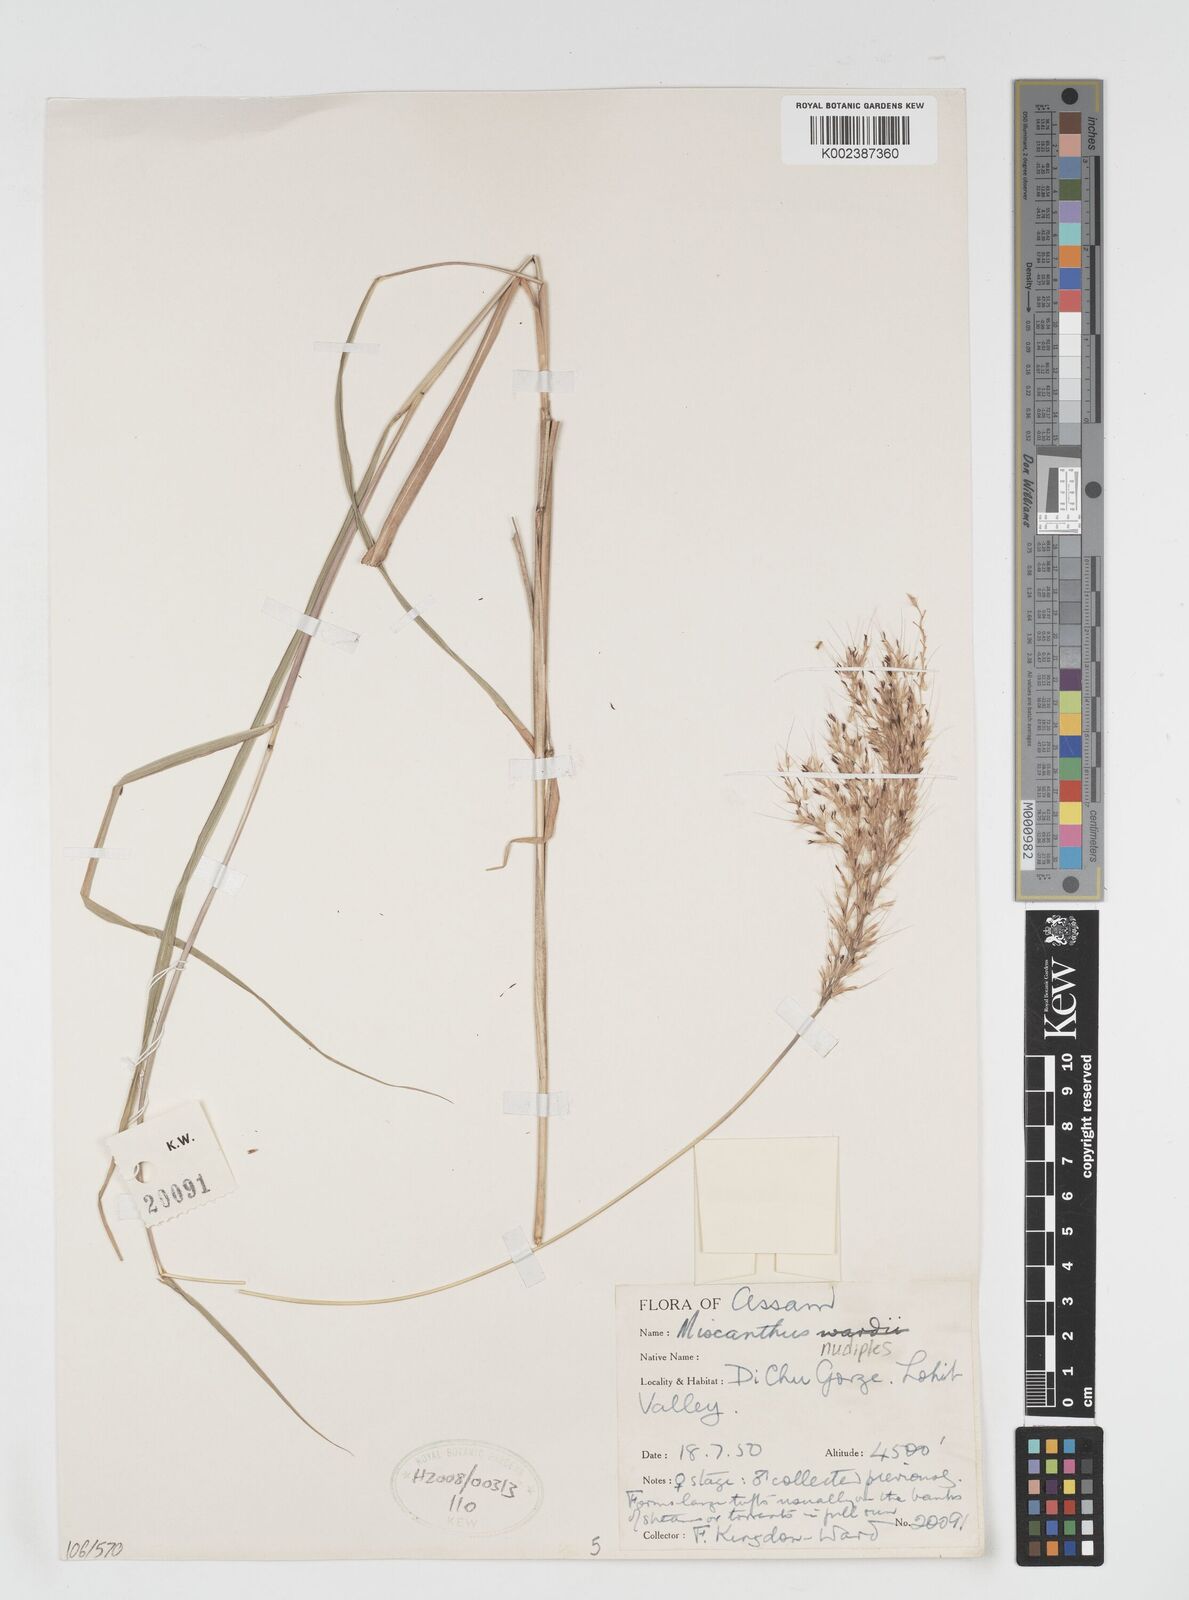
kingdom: Plantae
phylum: Tracheophyta
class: Liliopsida
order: Poales
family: Poaceae
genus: Miscanthus
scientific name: Miscanthus nudipes
